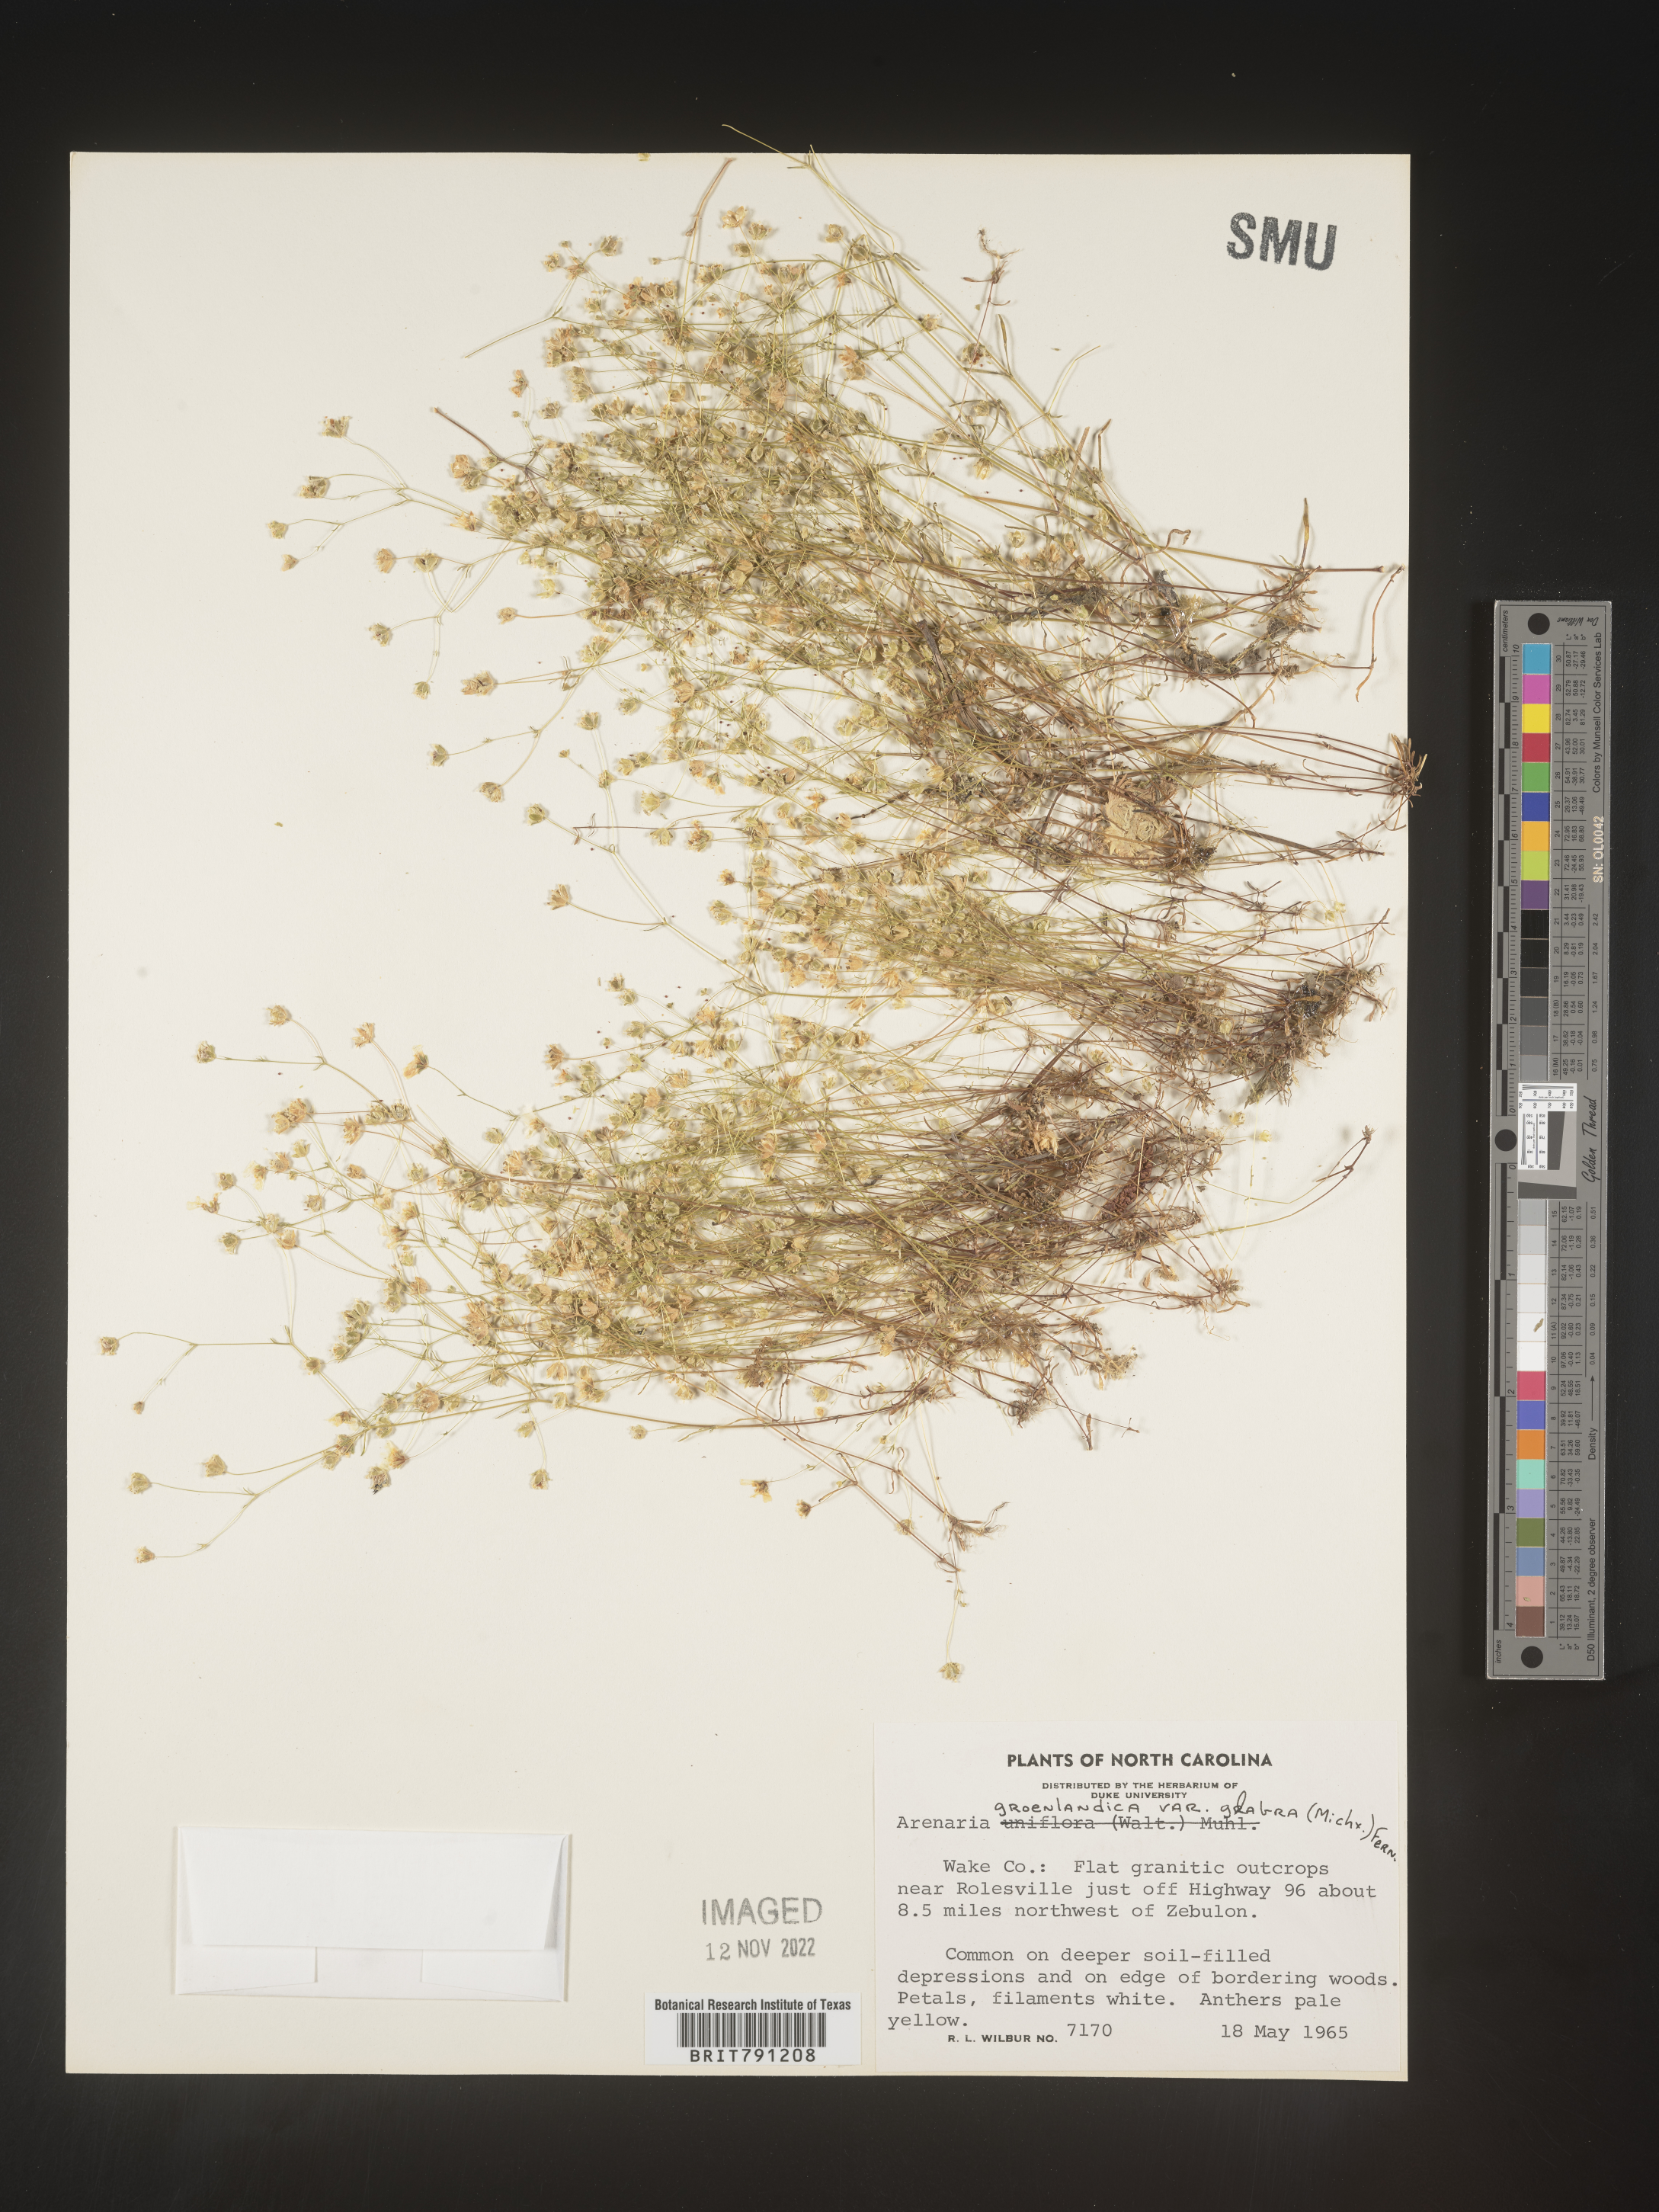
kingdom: Plantae
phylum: Tracheophyta
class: Magnoliopsida
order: Caryophyllales
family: Caryophyllaceae
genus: Geocarpon
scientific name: Geocarpon glabrum
